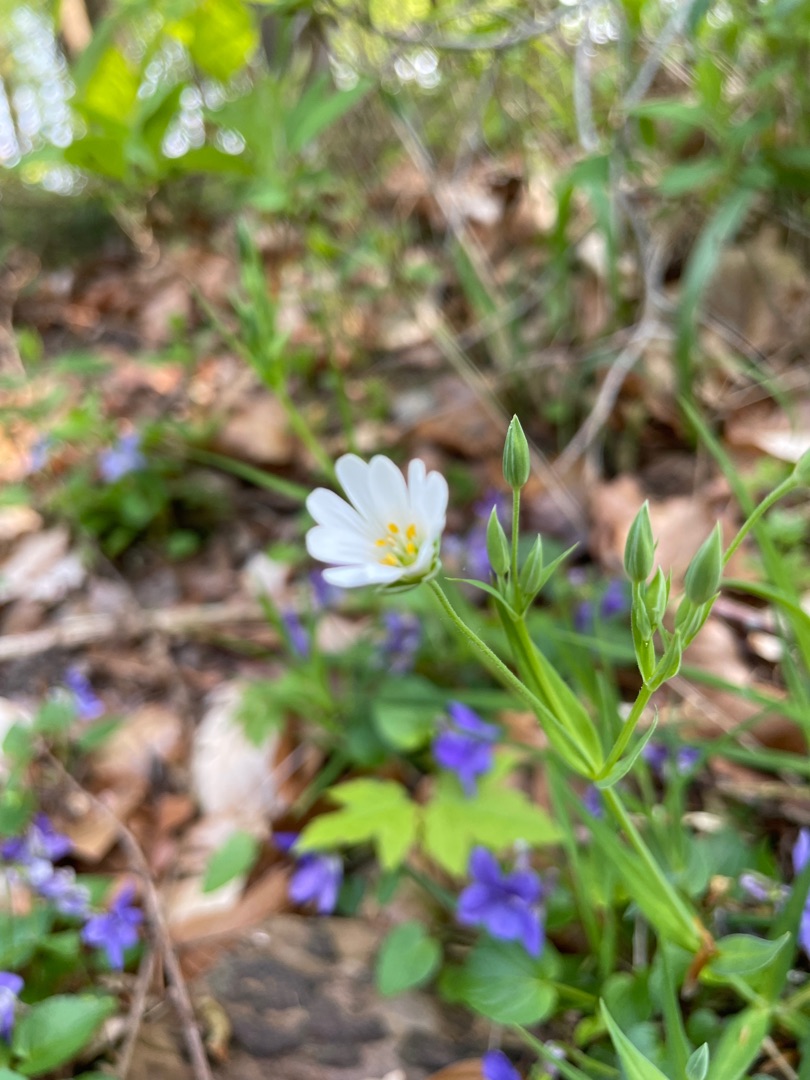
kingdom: Plantae
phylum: Tracheophyta
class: Magnoliopsida
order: Caryophyllales
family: Caryophyllaceae
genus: Rabelera
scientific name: Rabelera holostea
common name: Stor fladstjerne
